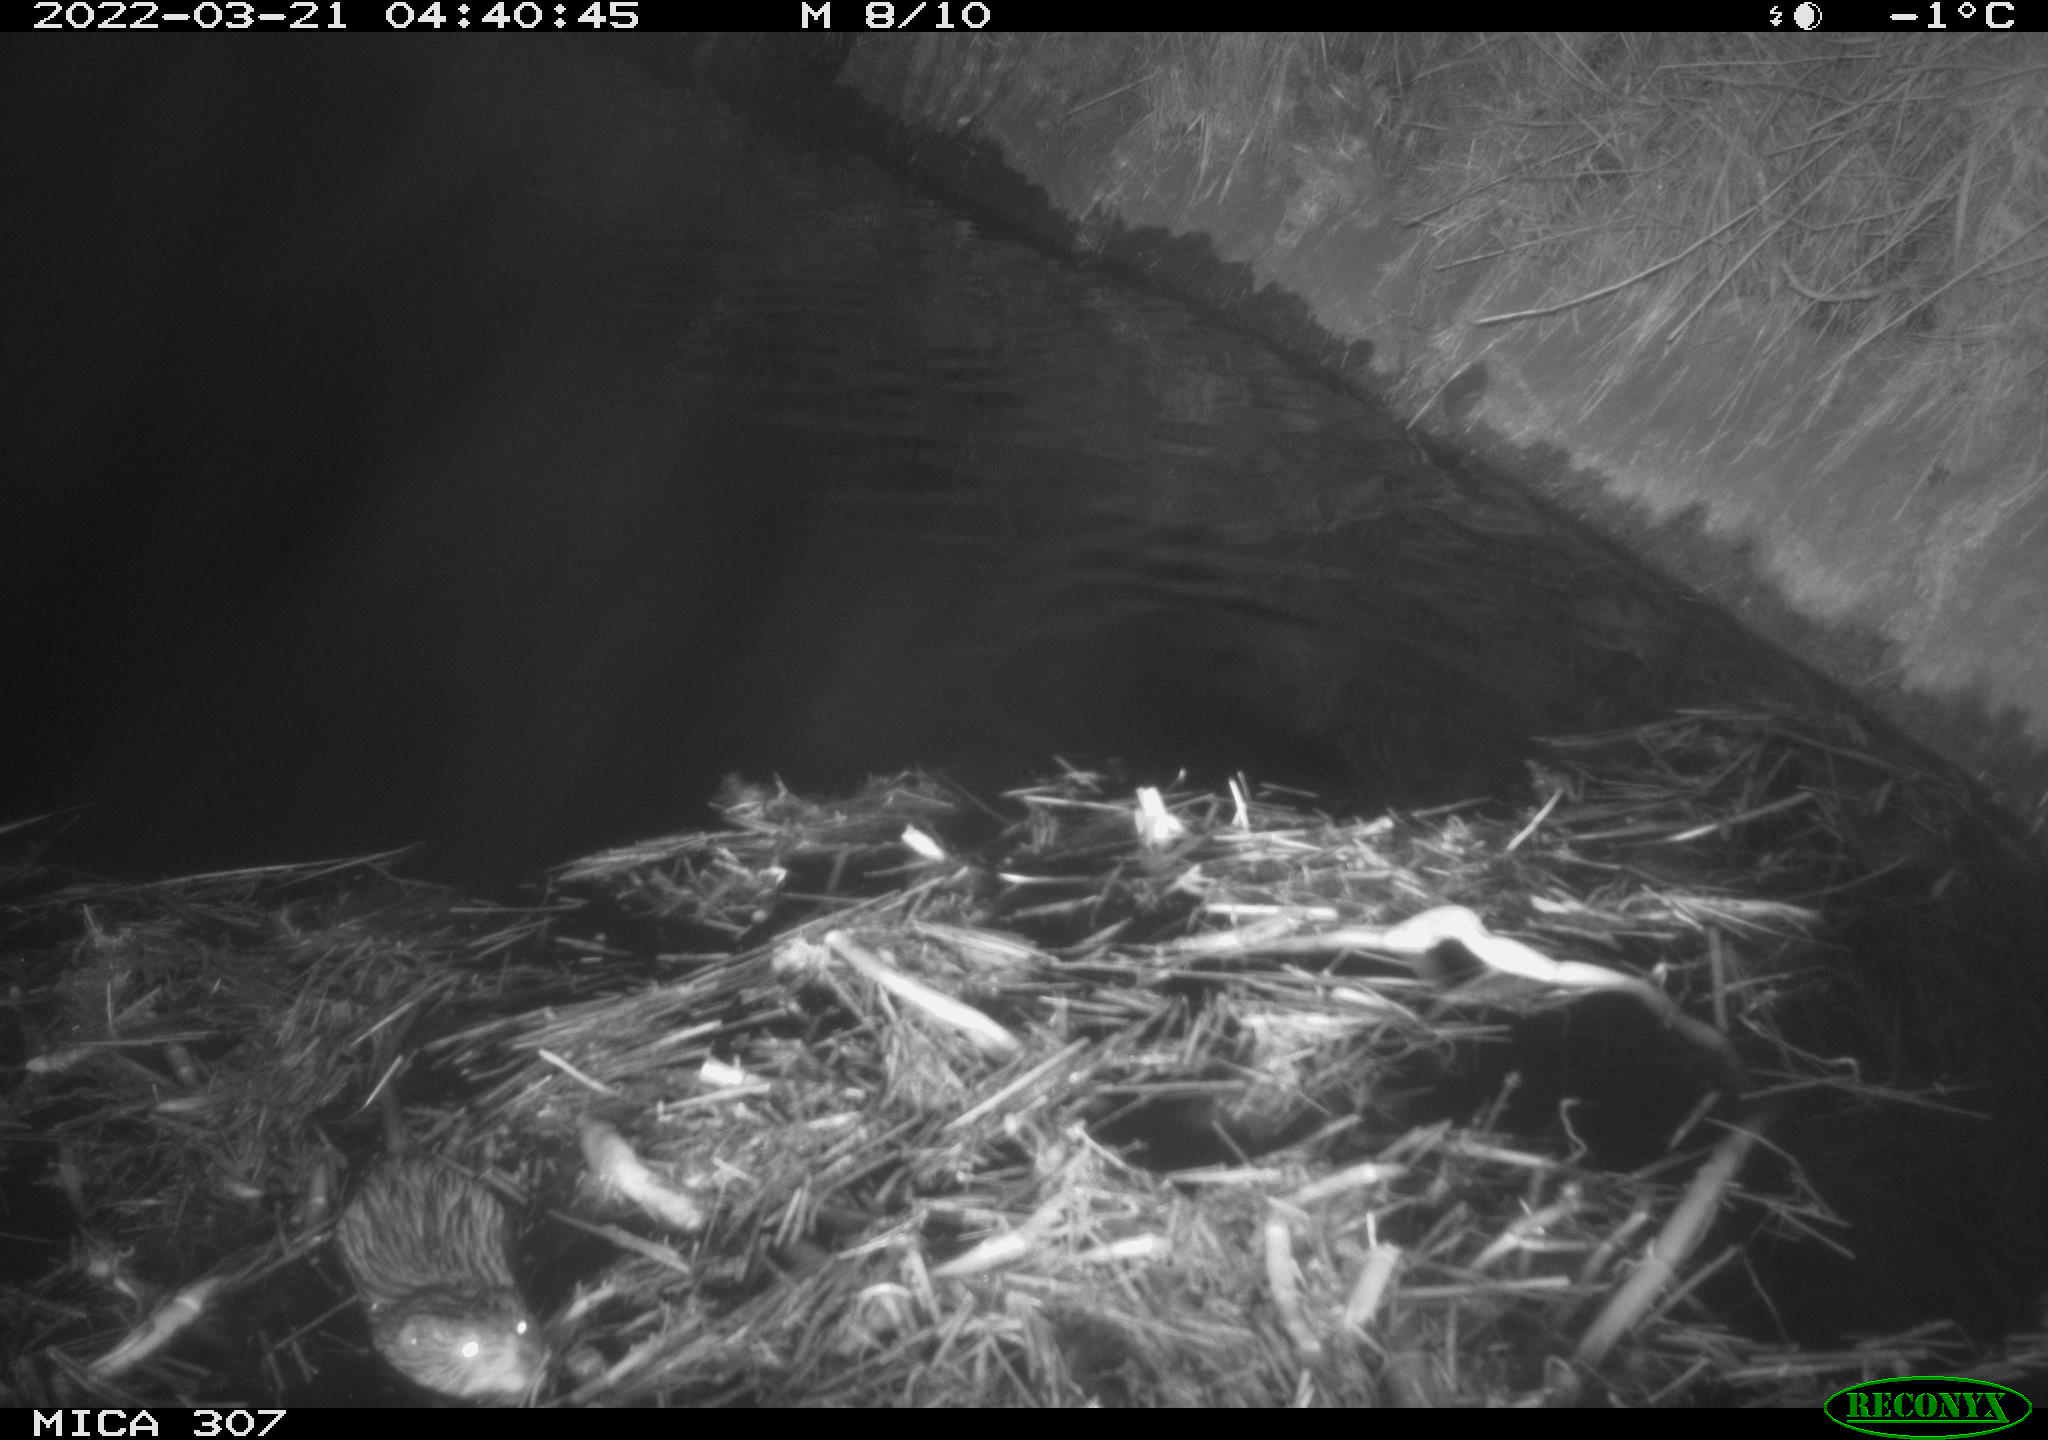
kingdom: Animalia
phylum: Chordata
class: Mammalia
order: Rodentia
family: Cricetidae
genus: Ondatra
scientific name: Ondatra zibethicus
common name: Muskrat
